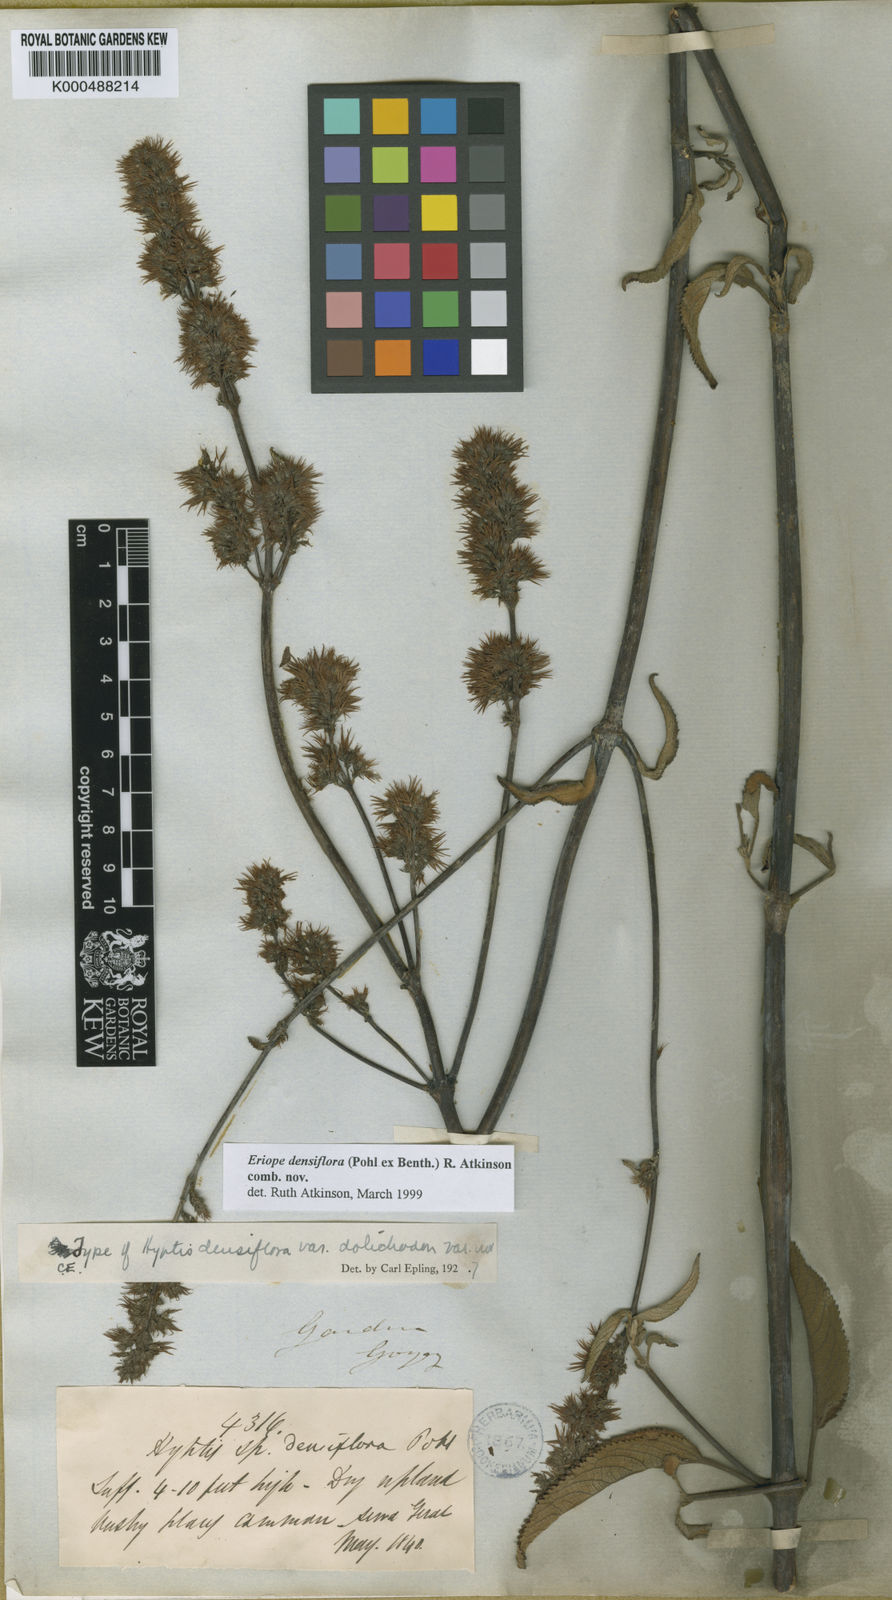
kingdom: Plantae
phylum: Tracheophyta
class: Magnoliopsida
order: Lamiales
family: Lamiaceae
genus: Hypenia
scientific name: Hypenia densiflora
